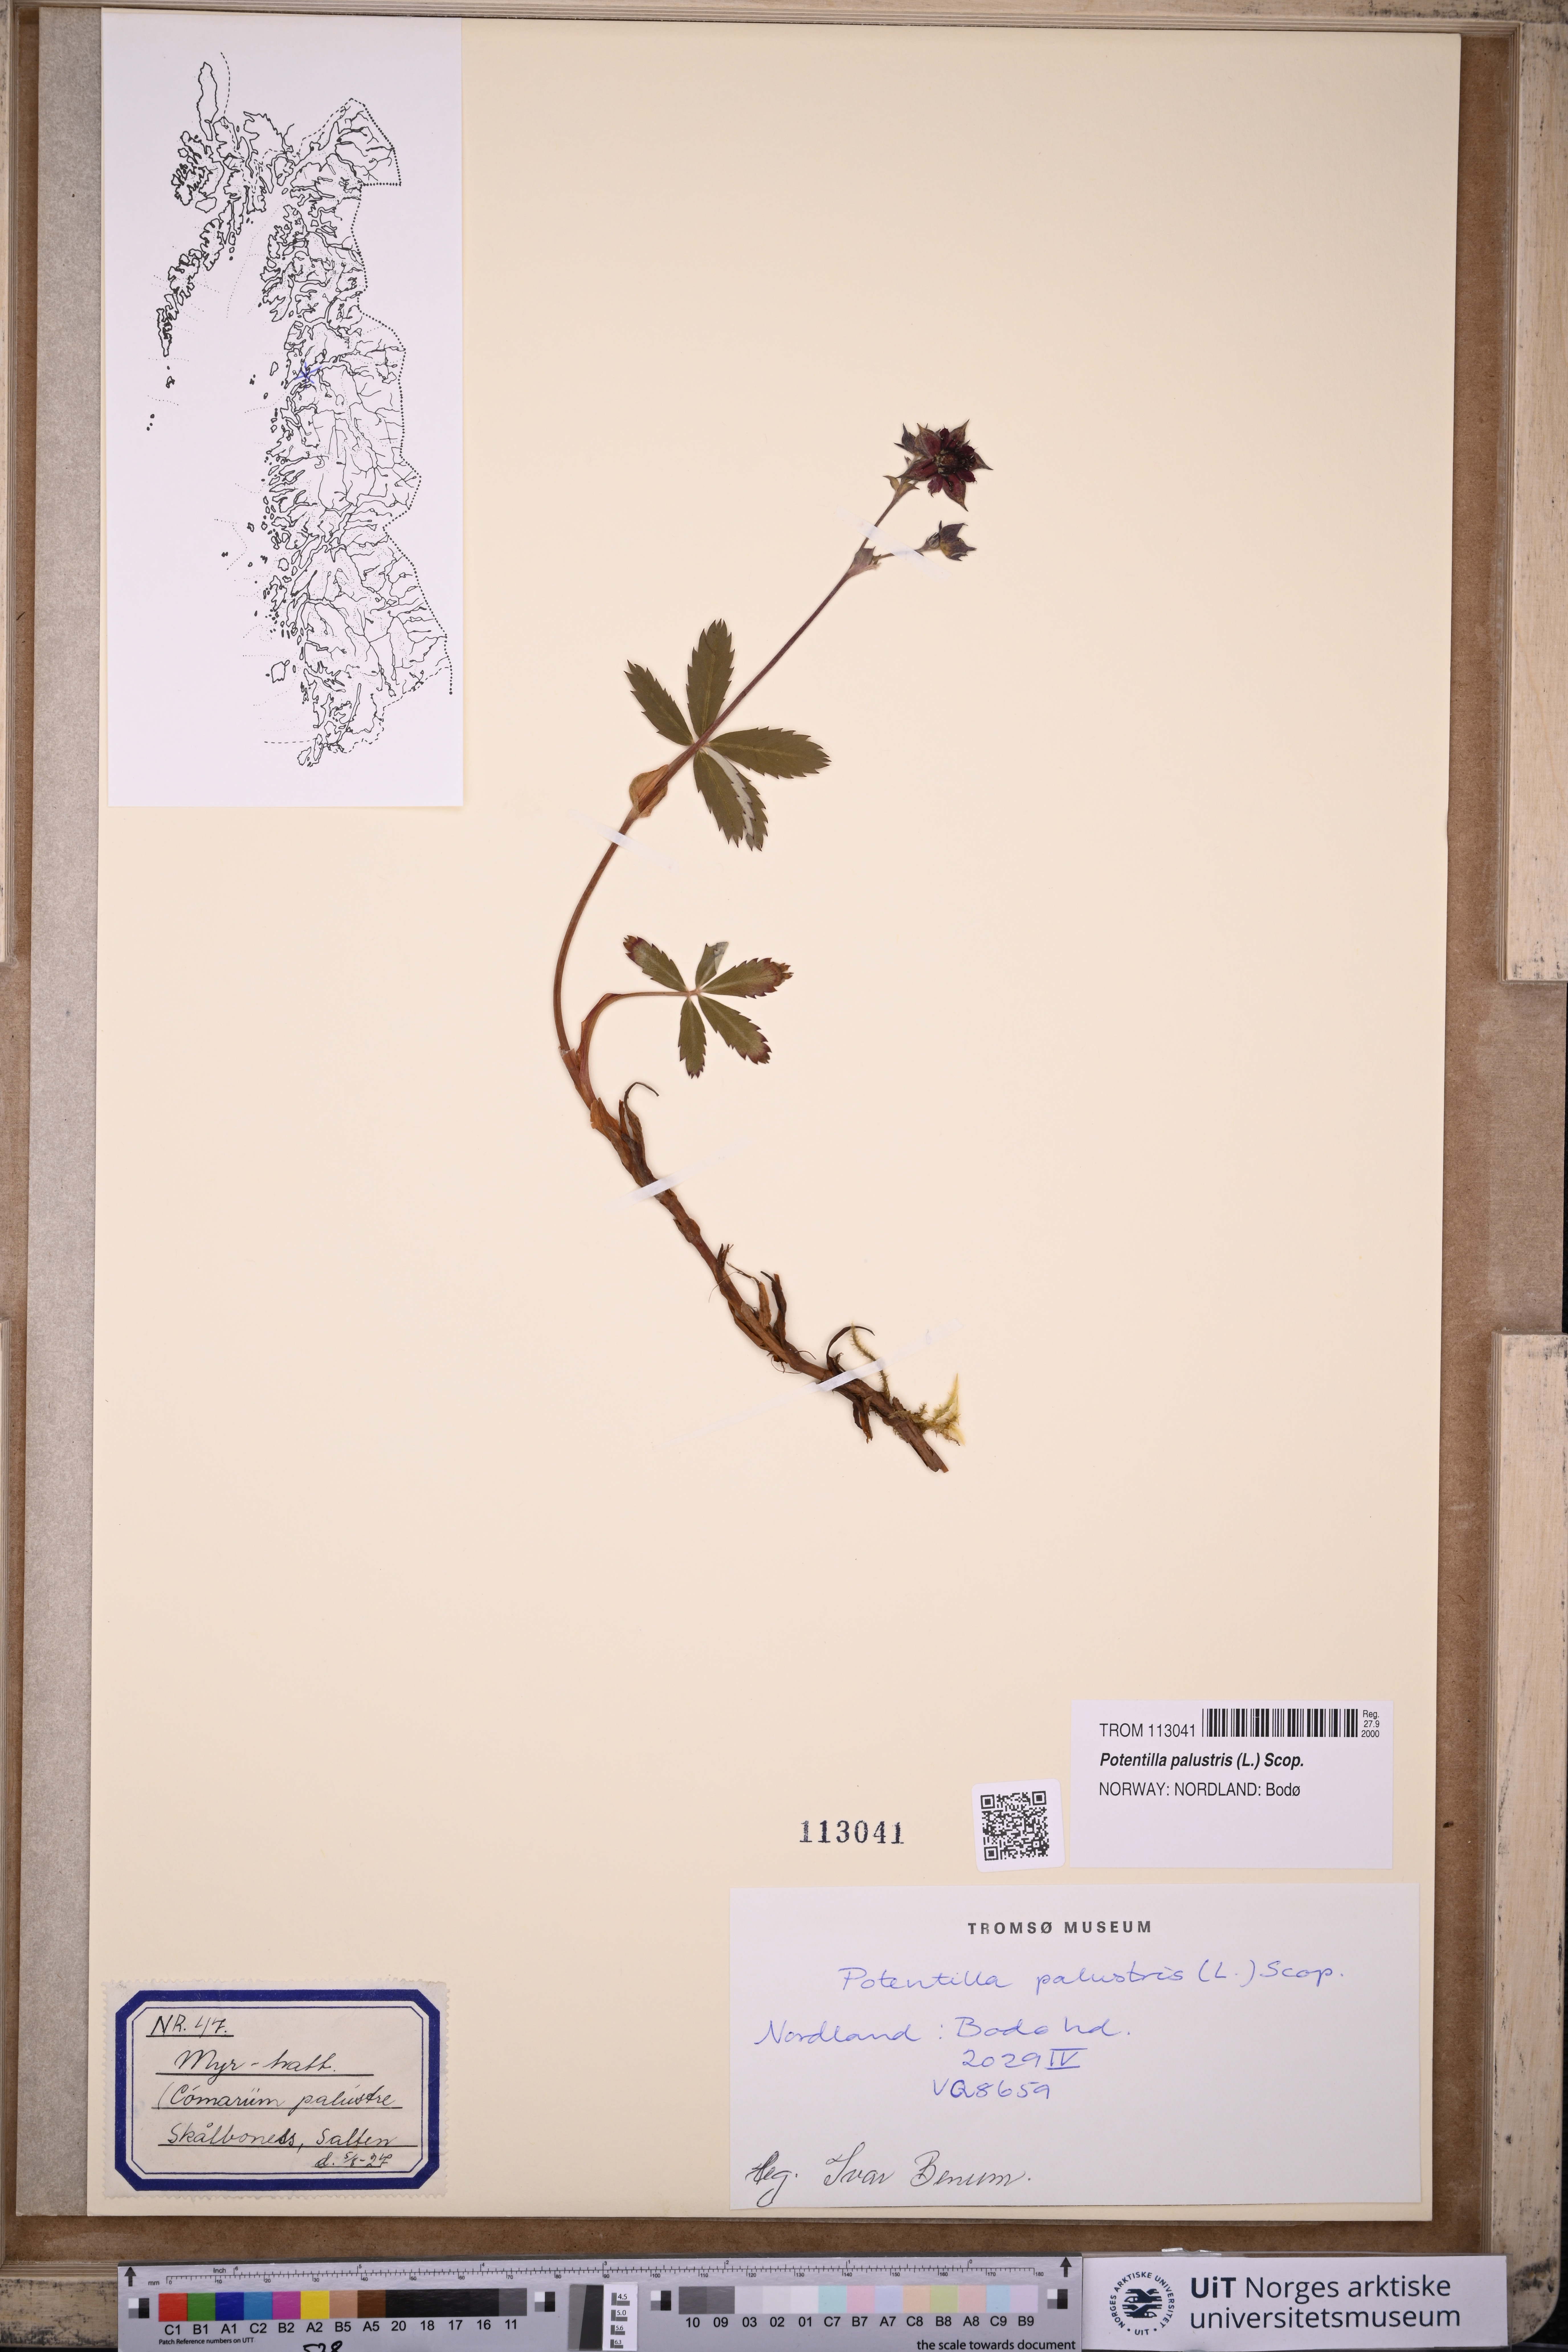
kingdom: Plantae
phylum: Tracheophyta
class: Magnoliopsida
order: Rosales
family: Rosaceae
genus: Comarum
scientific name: Comarum palustre
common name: Marsh cinquefoil
